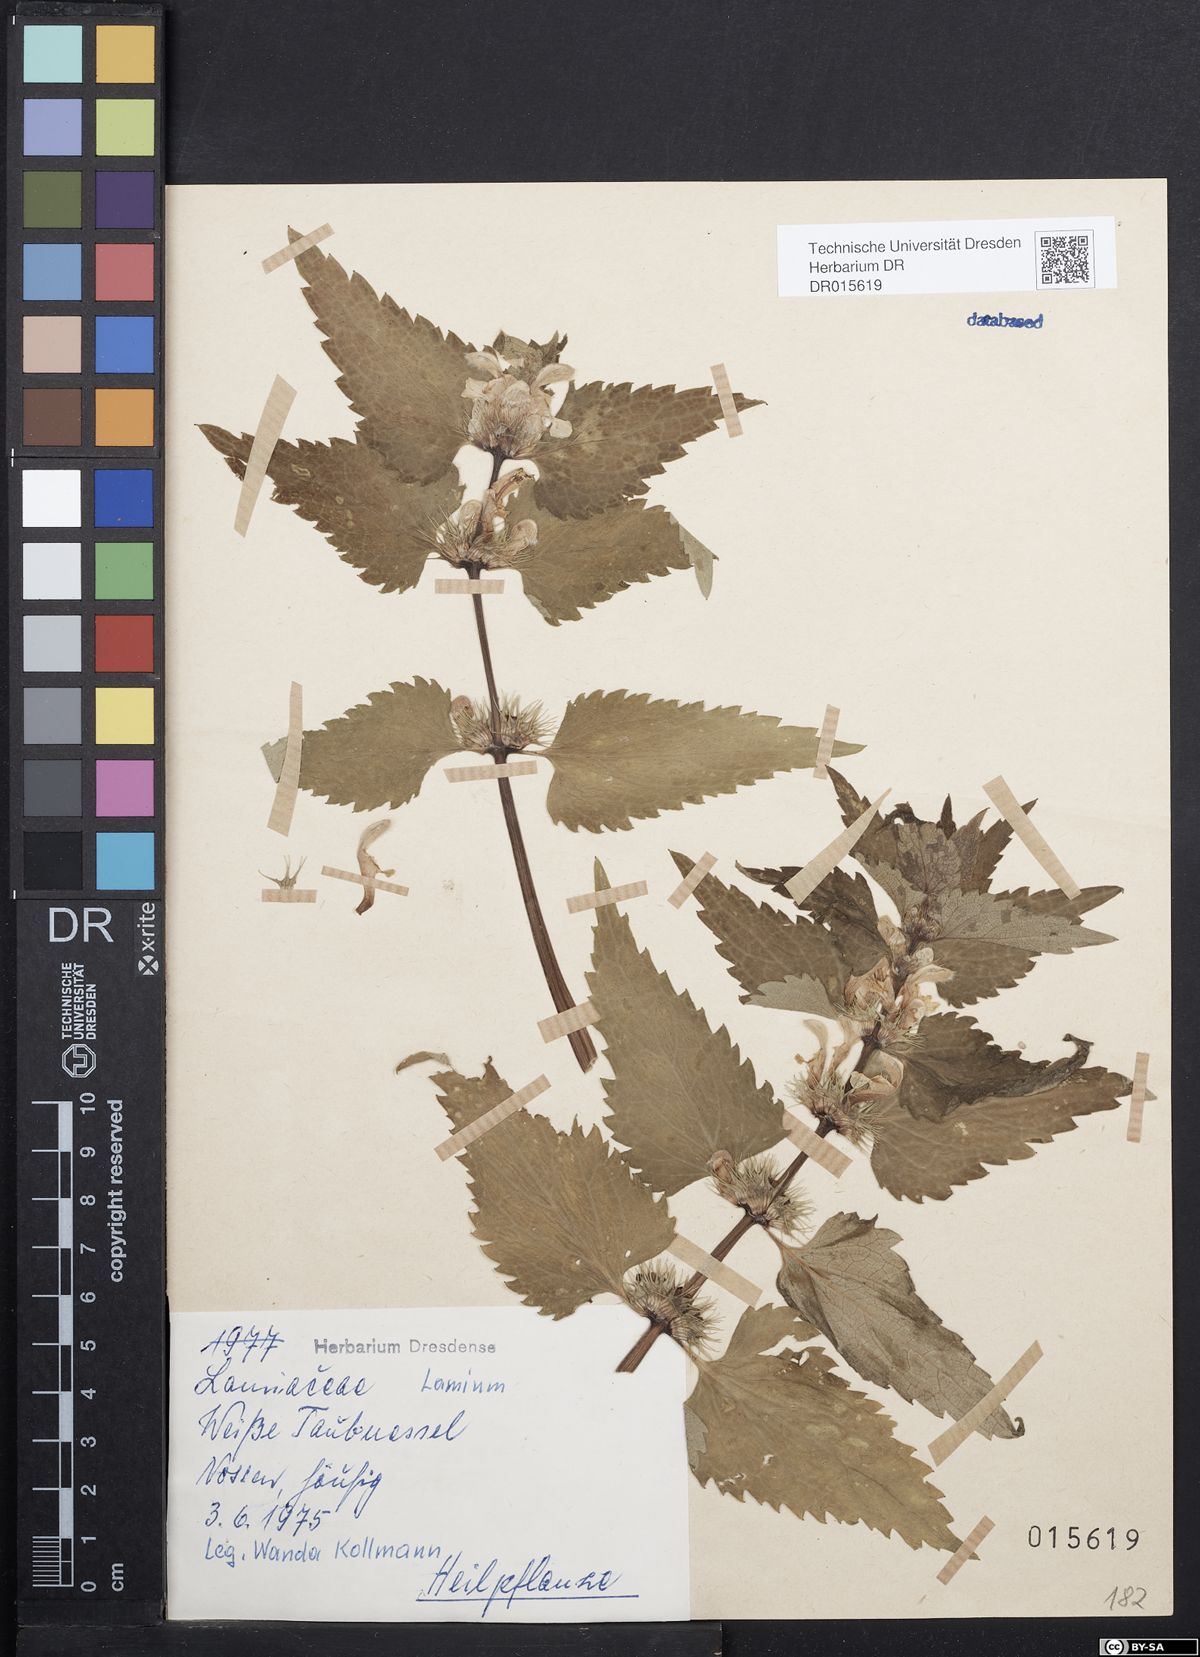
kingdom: Plantae
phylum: Tracheophyta
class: Magnoliopsida
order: Lamiales
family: Lamiaceae
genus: Lamium
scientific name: Lamium album
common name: White dead-nettle
